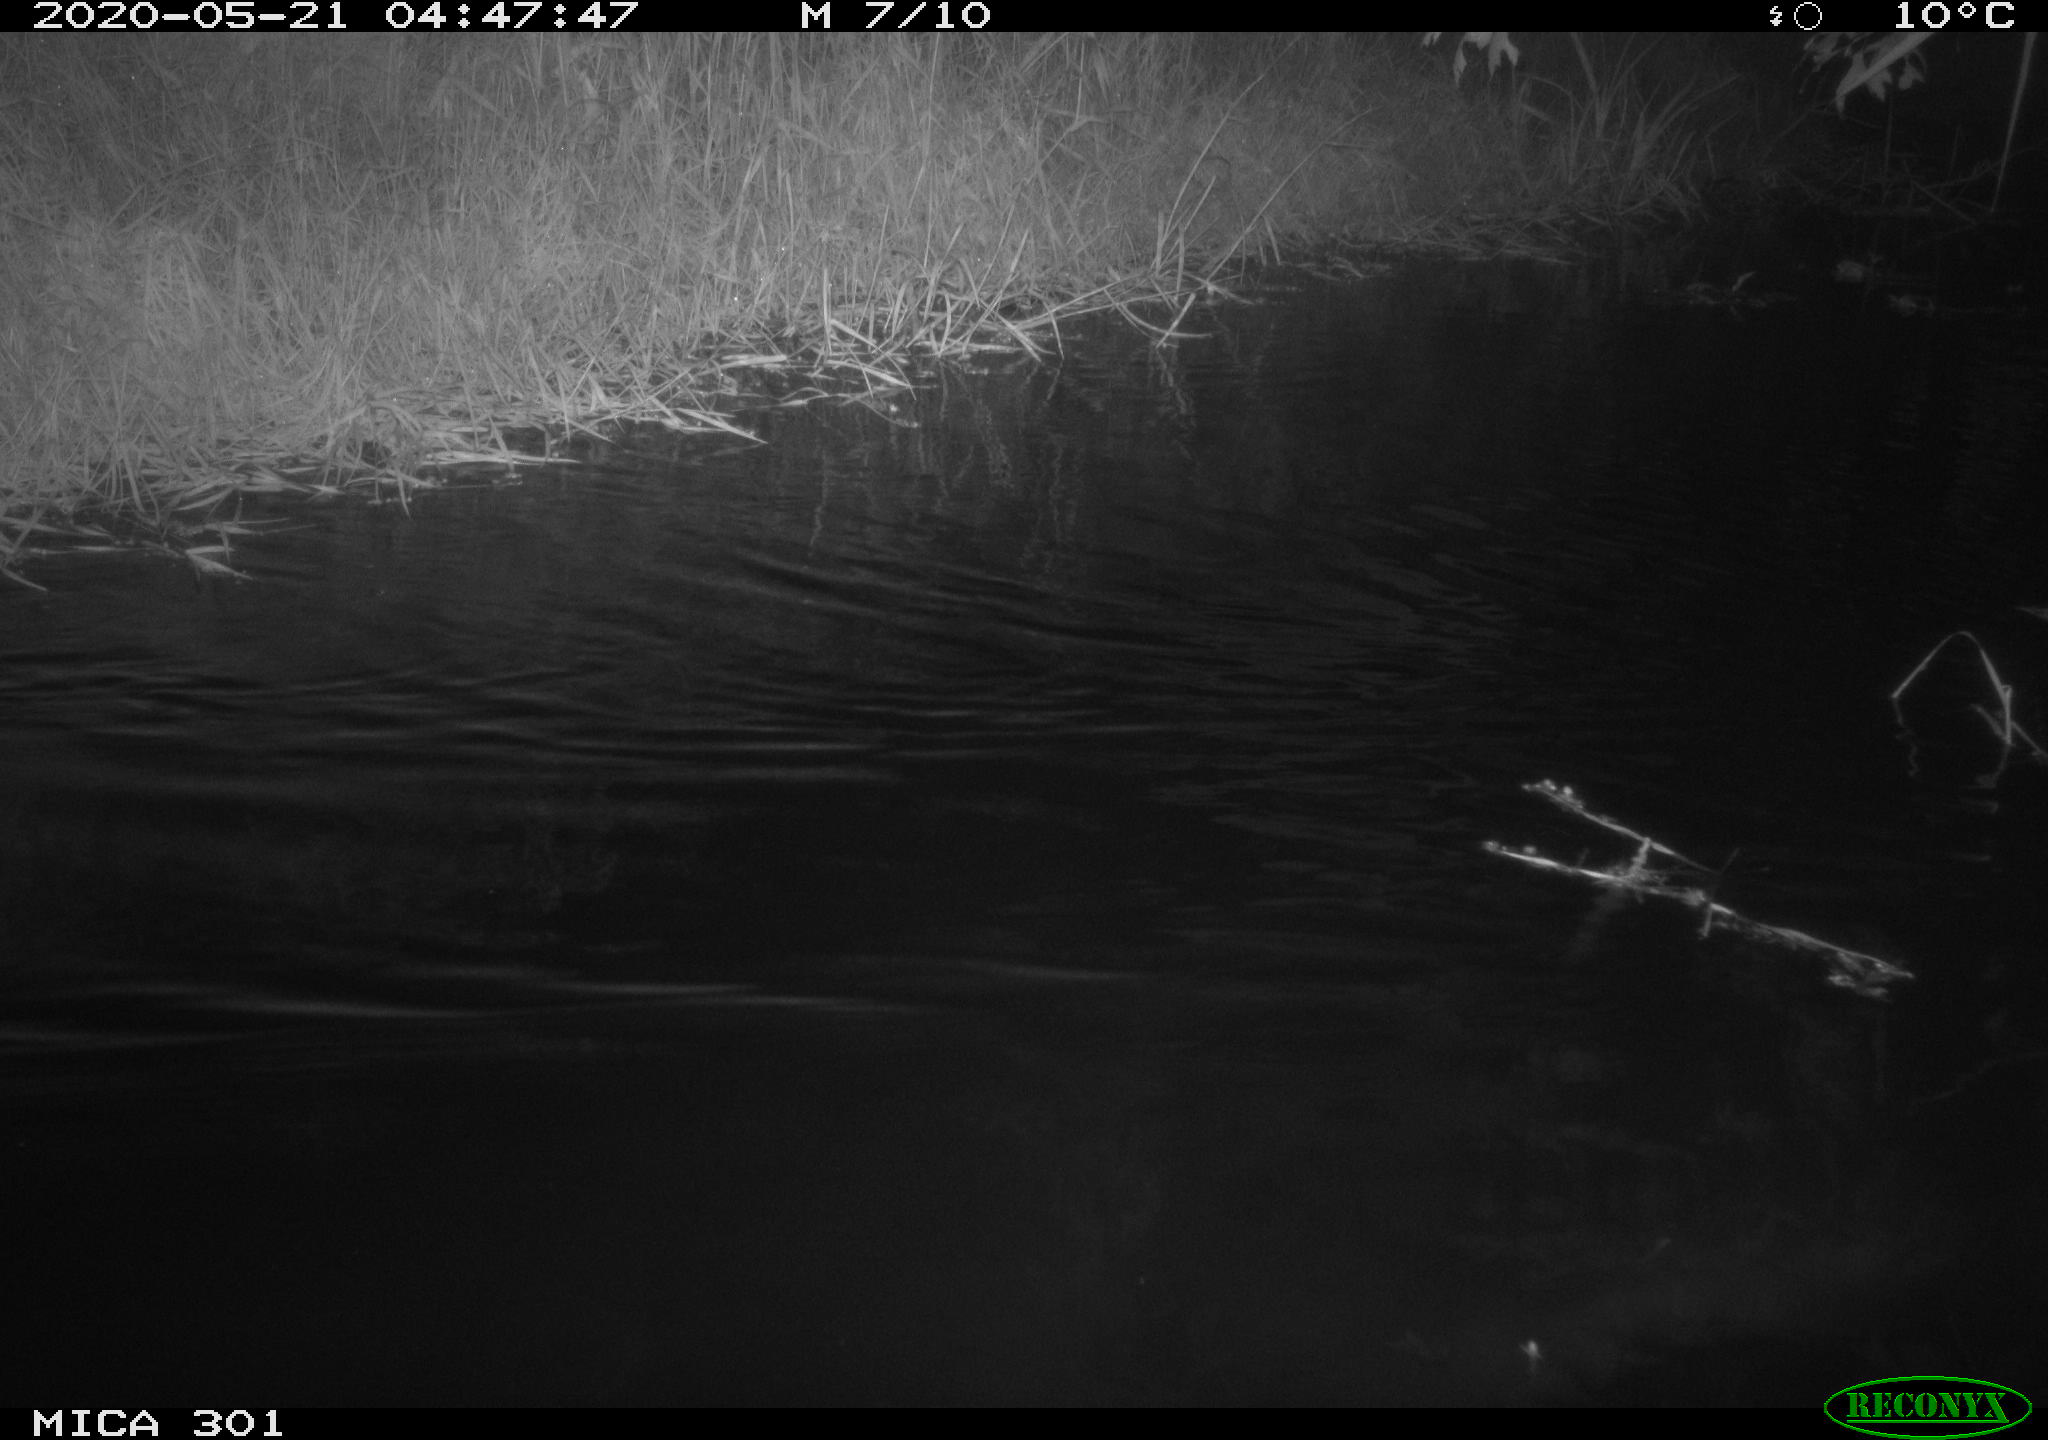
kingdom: Animalia
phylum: Chordata
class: Aves
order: Anseriformes
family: Anatidae
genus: Mareca
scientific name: Mareca strepera
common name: Gadwall
